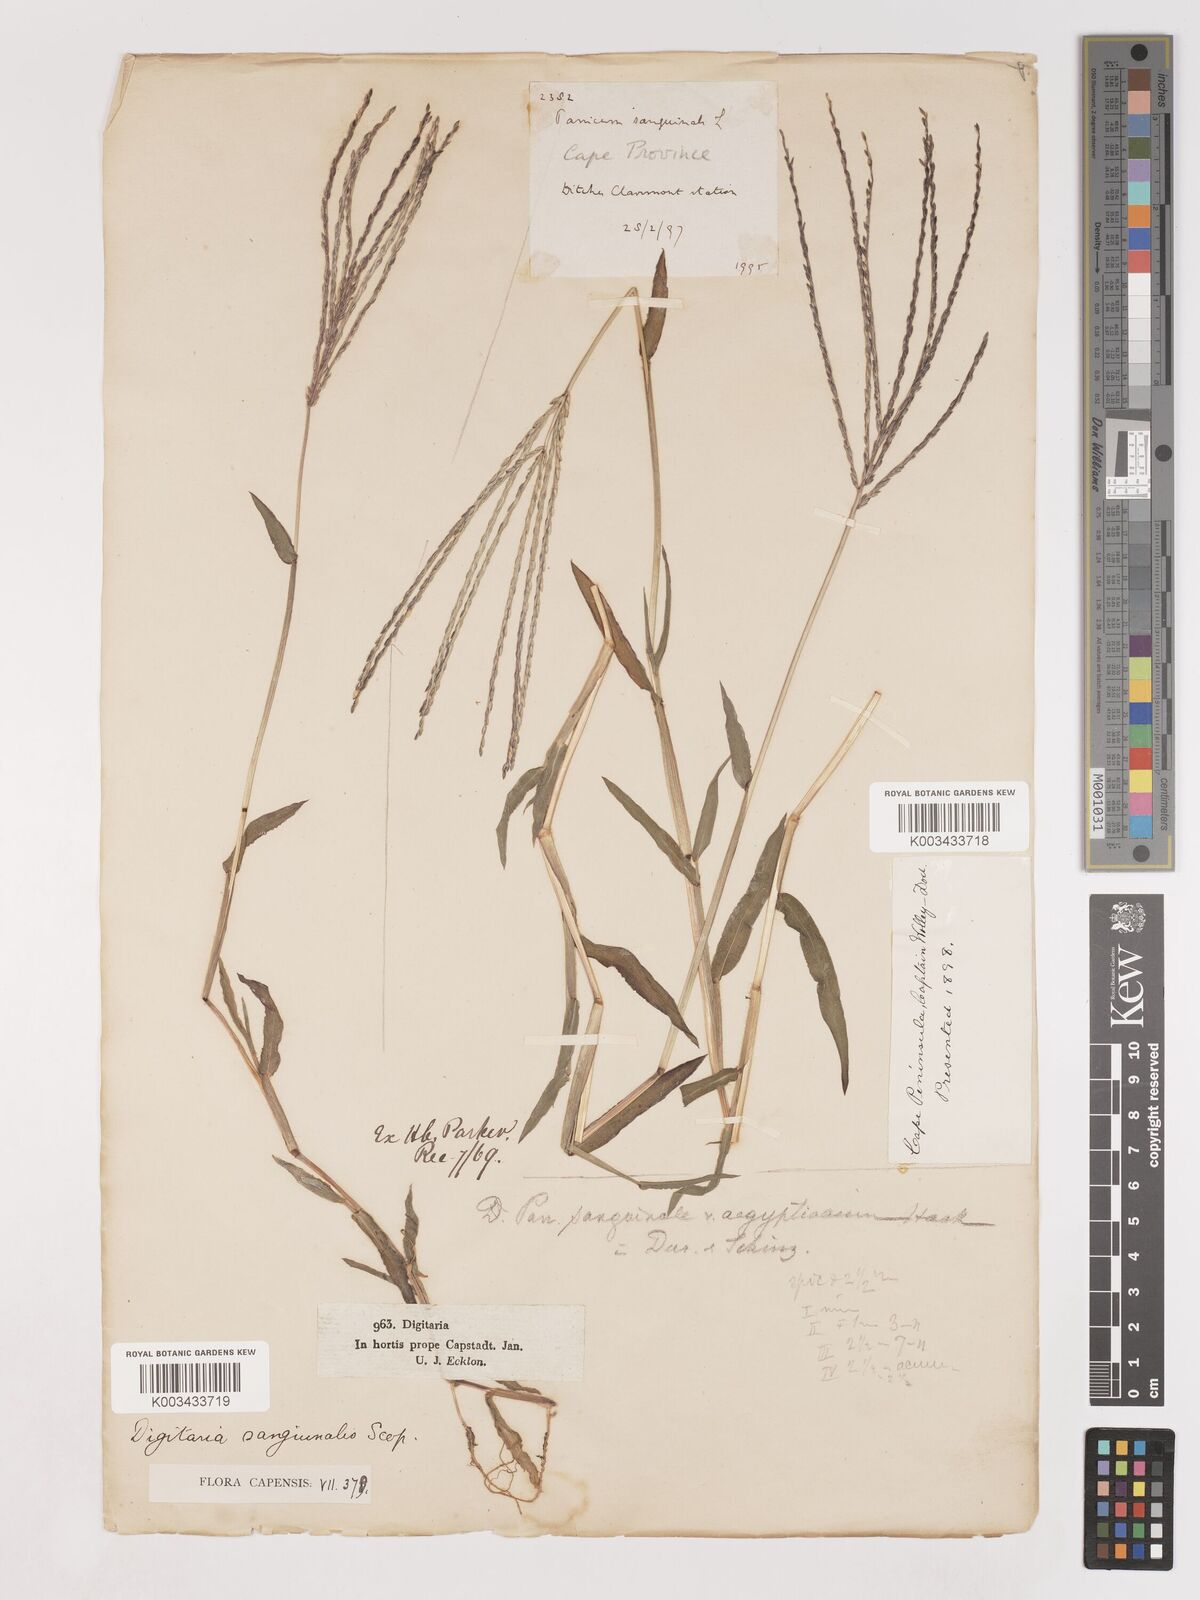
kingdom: Plantae
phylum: Tracheophyta
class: Liliopsida
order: Poales
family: Poaceae
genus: Digitaria
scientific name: Digitaria sanguinalis
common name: Hairy crabgrass
